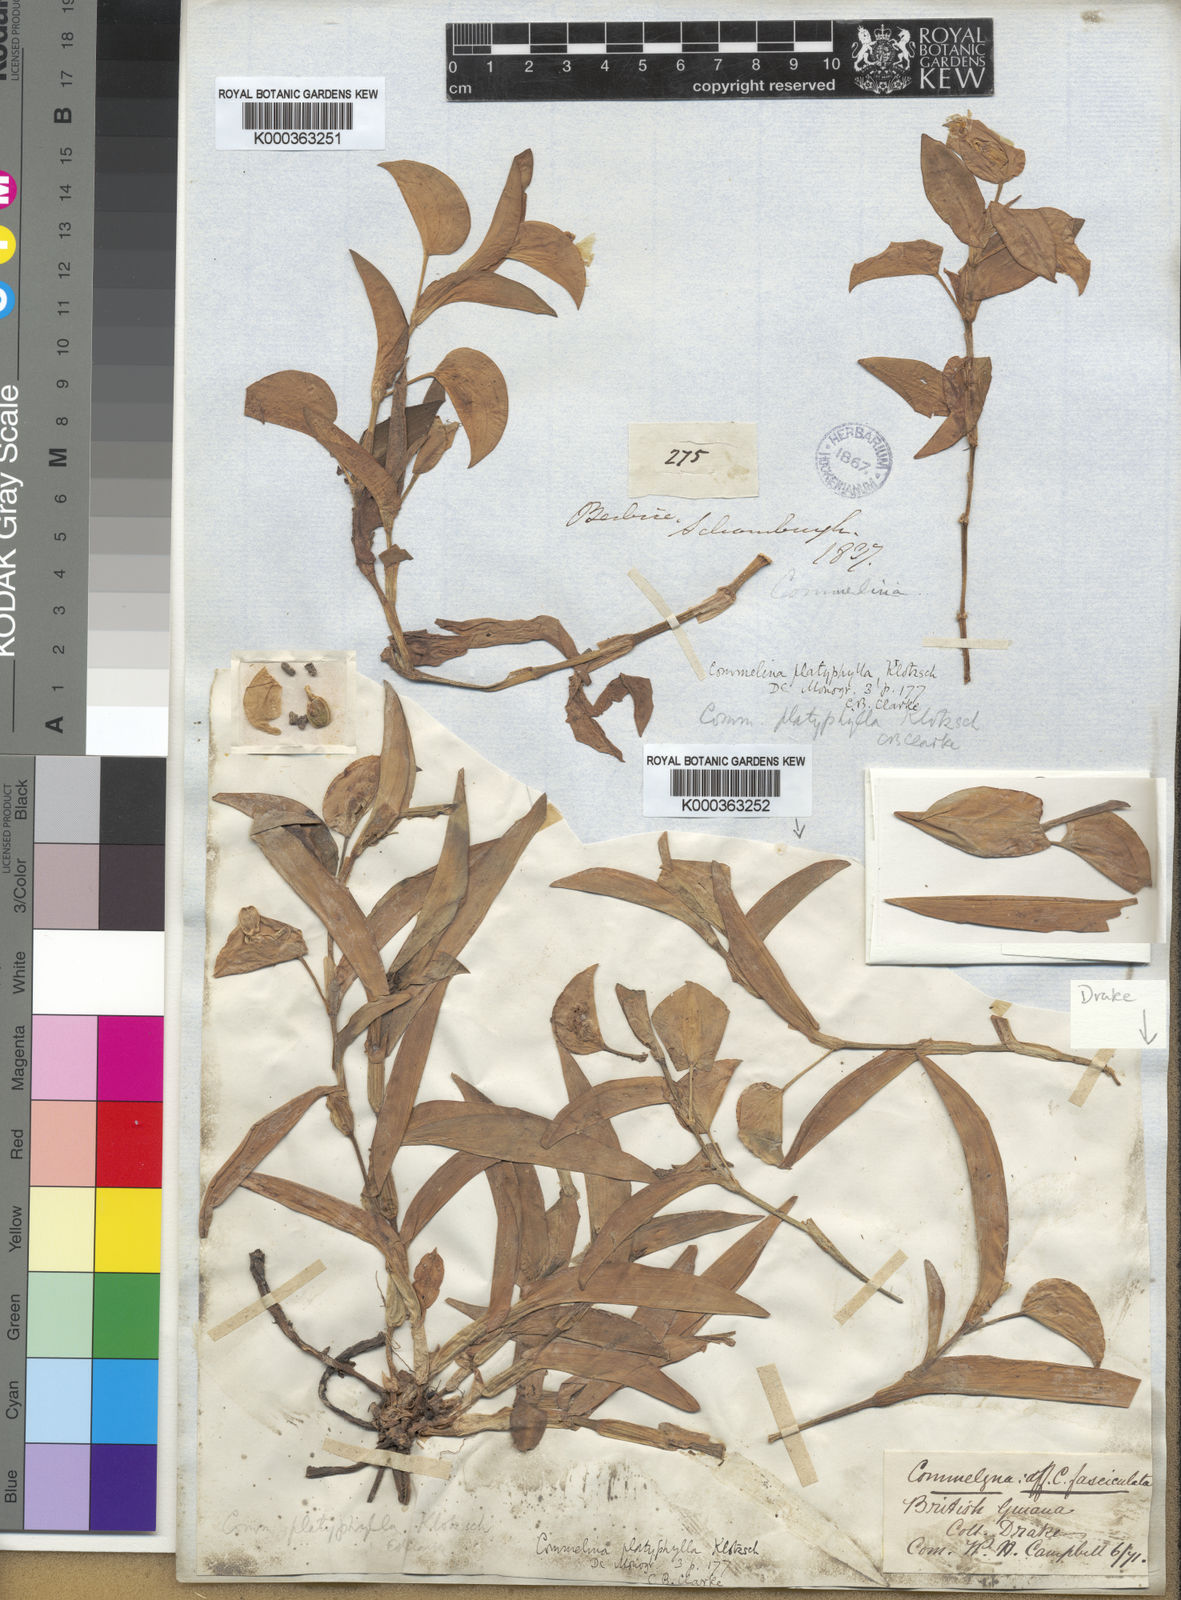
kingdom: Plantae
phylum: Tracheophyta
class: Liliopsida
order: Commelinales
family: Commelinaceae
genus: Commelina
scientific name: Commelina
